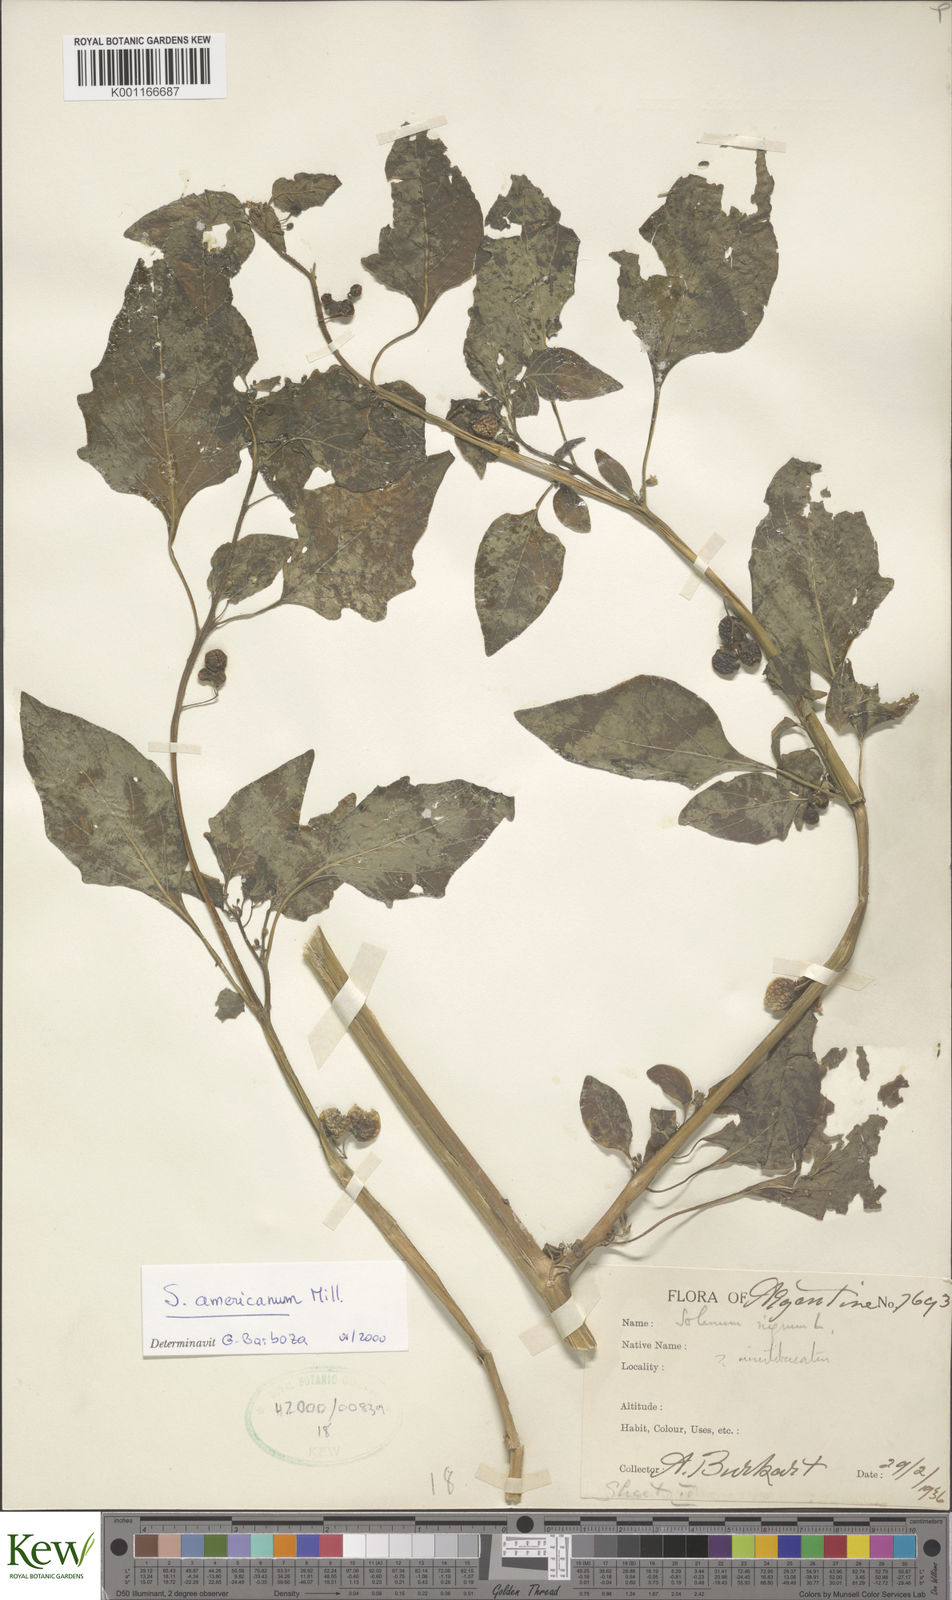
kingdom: Plantae
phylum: Tracheophyta
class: Magnoliopsida
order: Solanales
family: Solanaceae
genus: Solanum
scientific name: Solanum americanum
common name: American black nightshade
